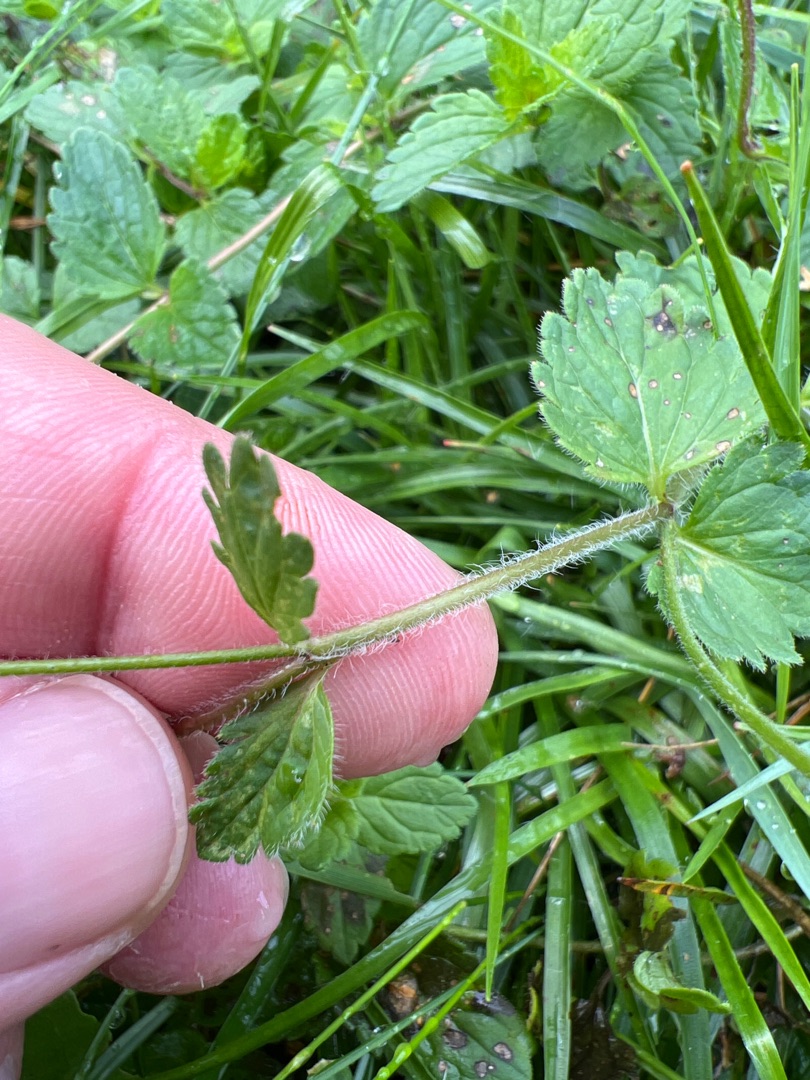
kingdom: Plantae
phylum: Tracheophyta
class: Magnoliopsida
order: Lamiales
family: Plantaginaceae
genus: Veronica
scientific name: Veronica chamaedrys
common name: Tveskægget ærenpris
